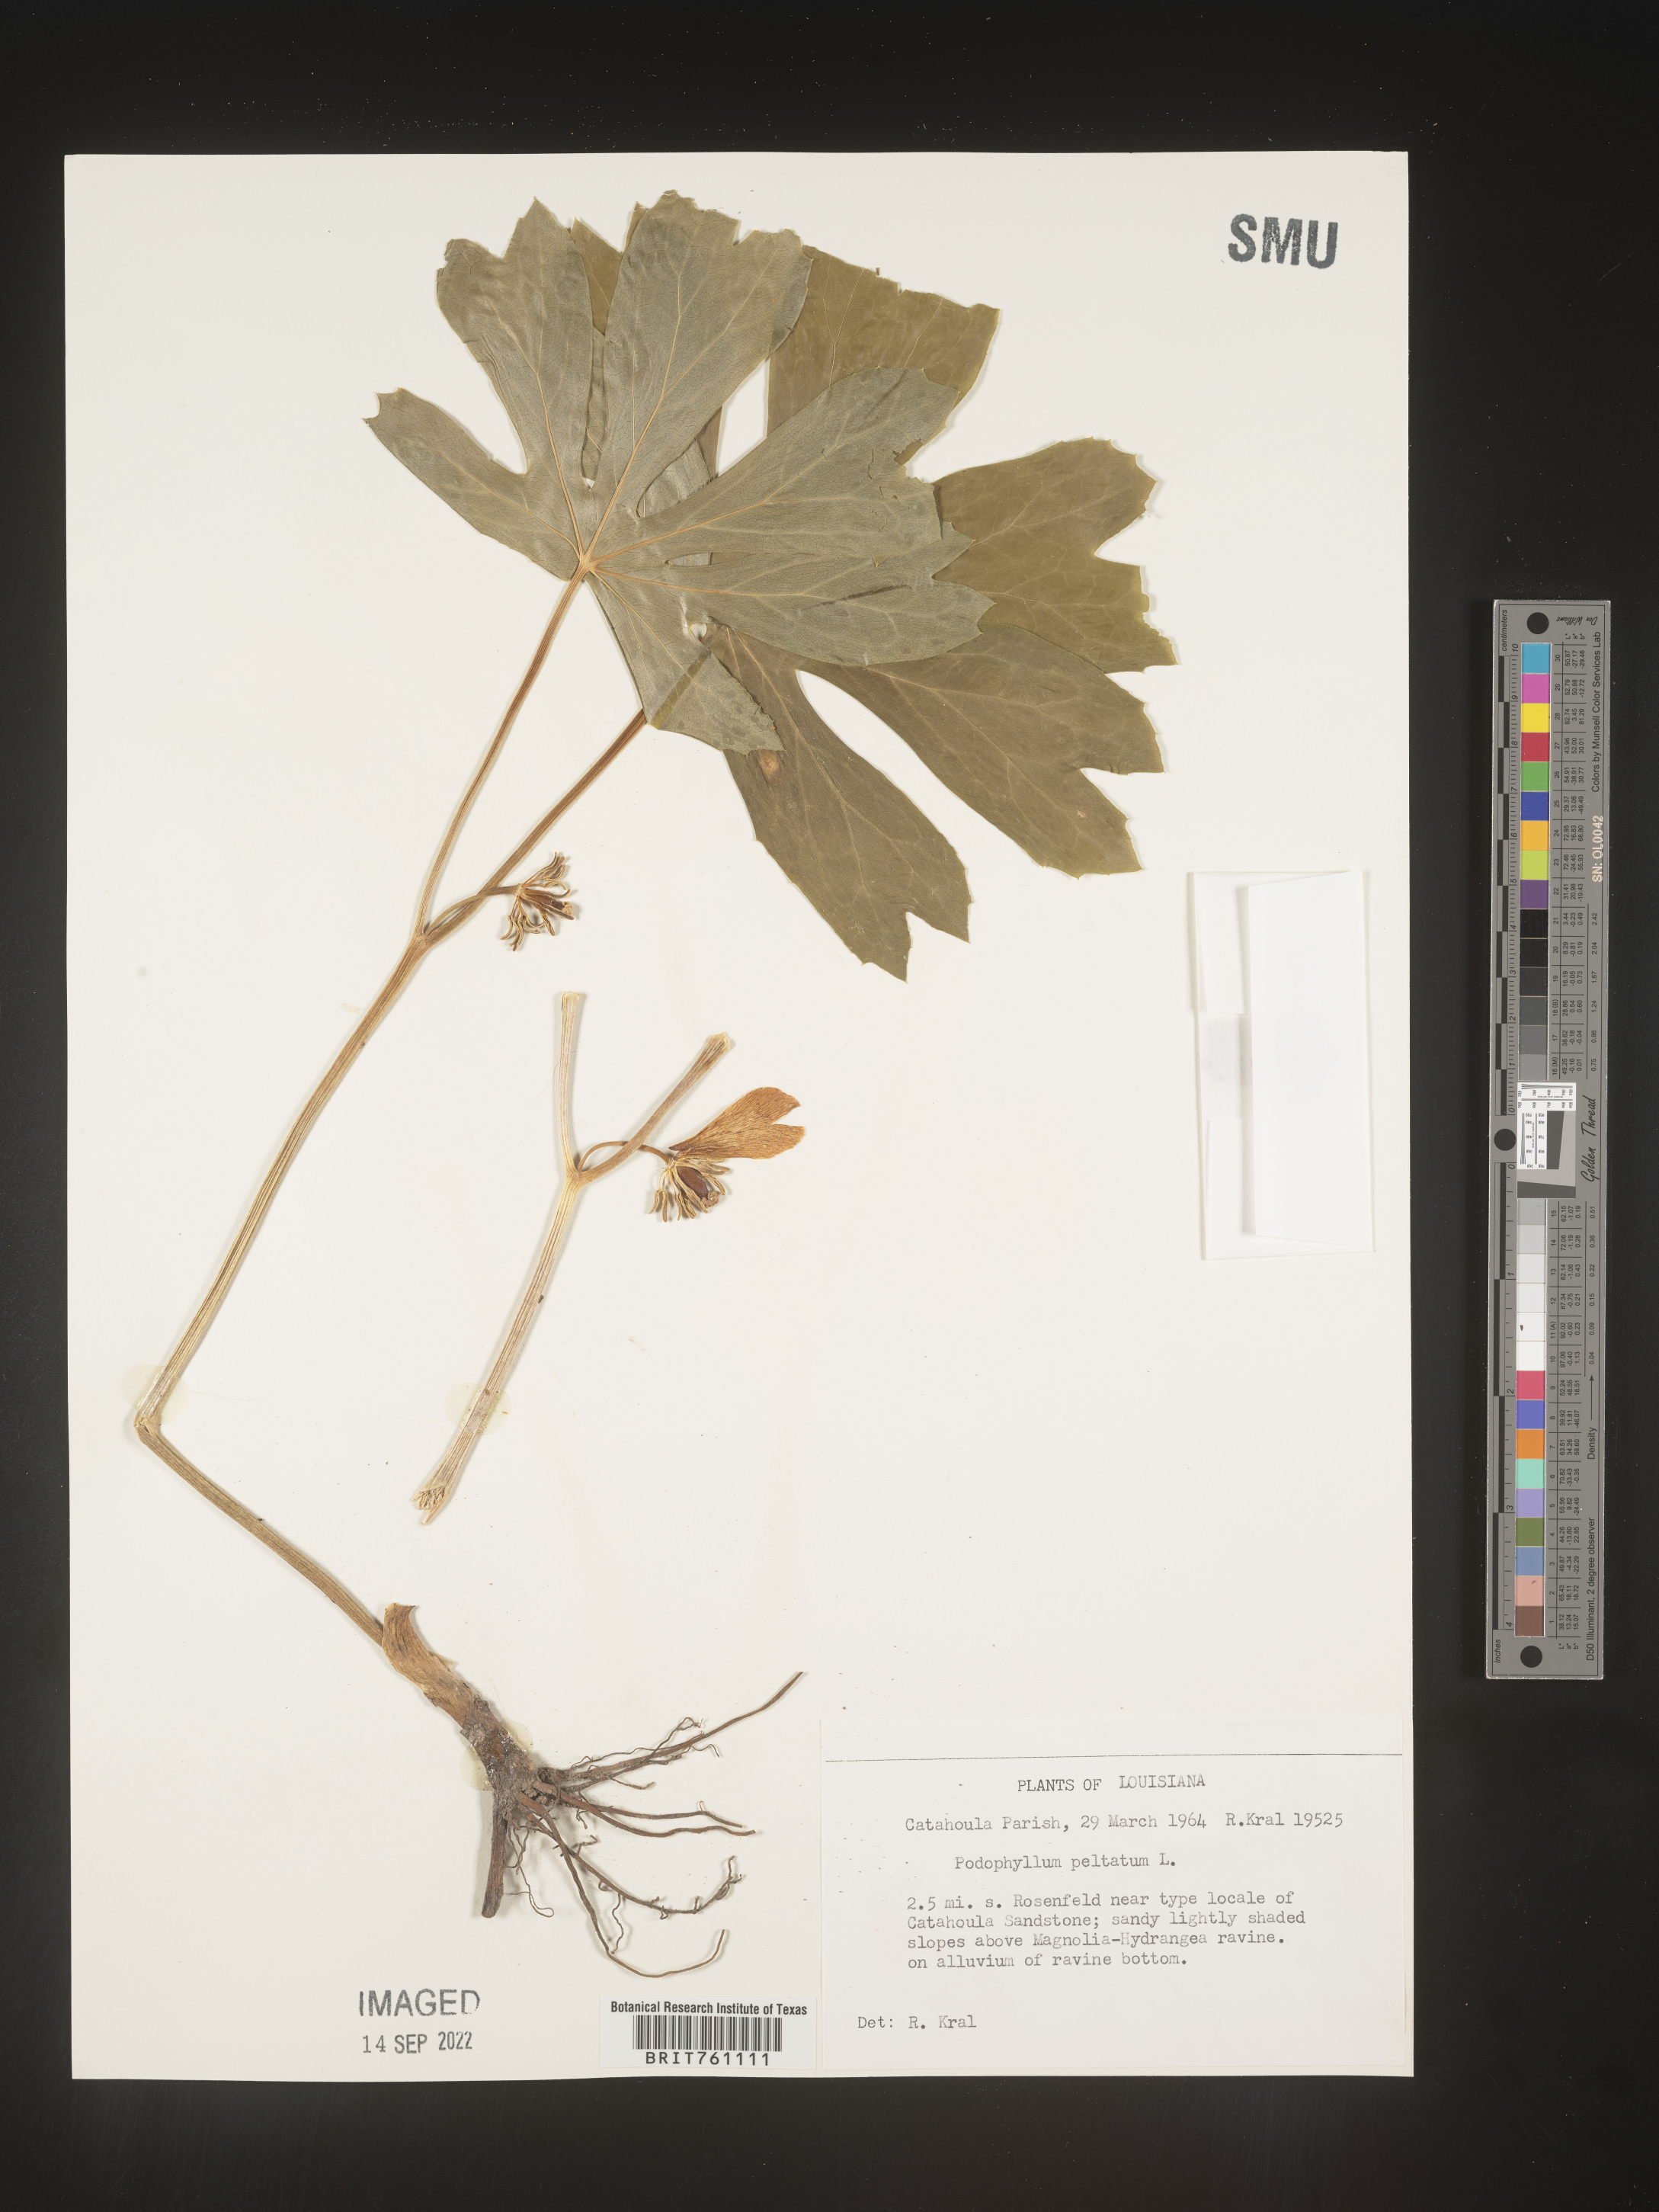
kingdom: Plantae
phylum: Tracheophyta
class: Magnoliopsida
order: Ranunculales
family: Berberidaceae
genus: Podophyllum
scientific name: Podophyllum peltatum
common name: Wild mandrake
